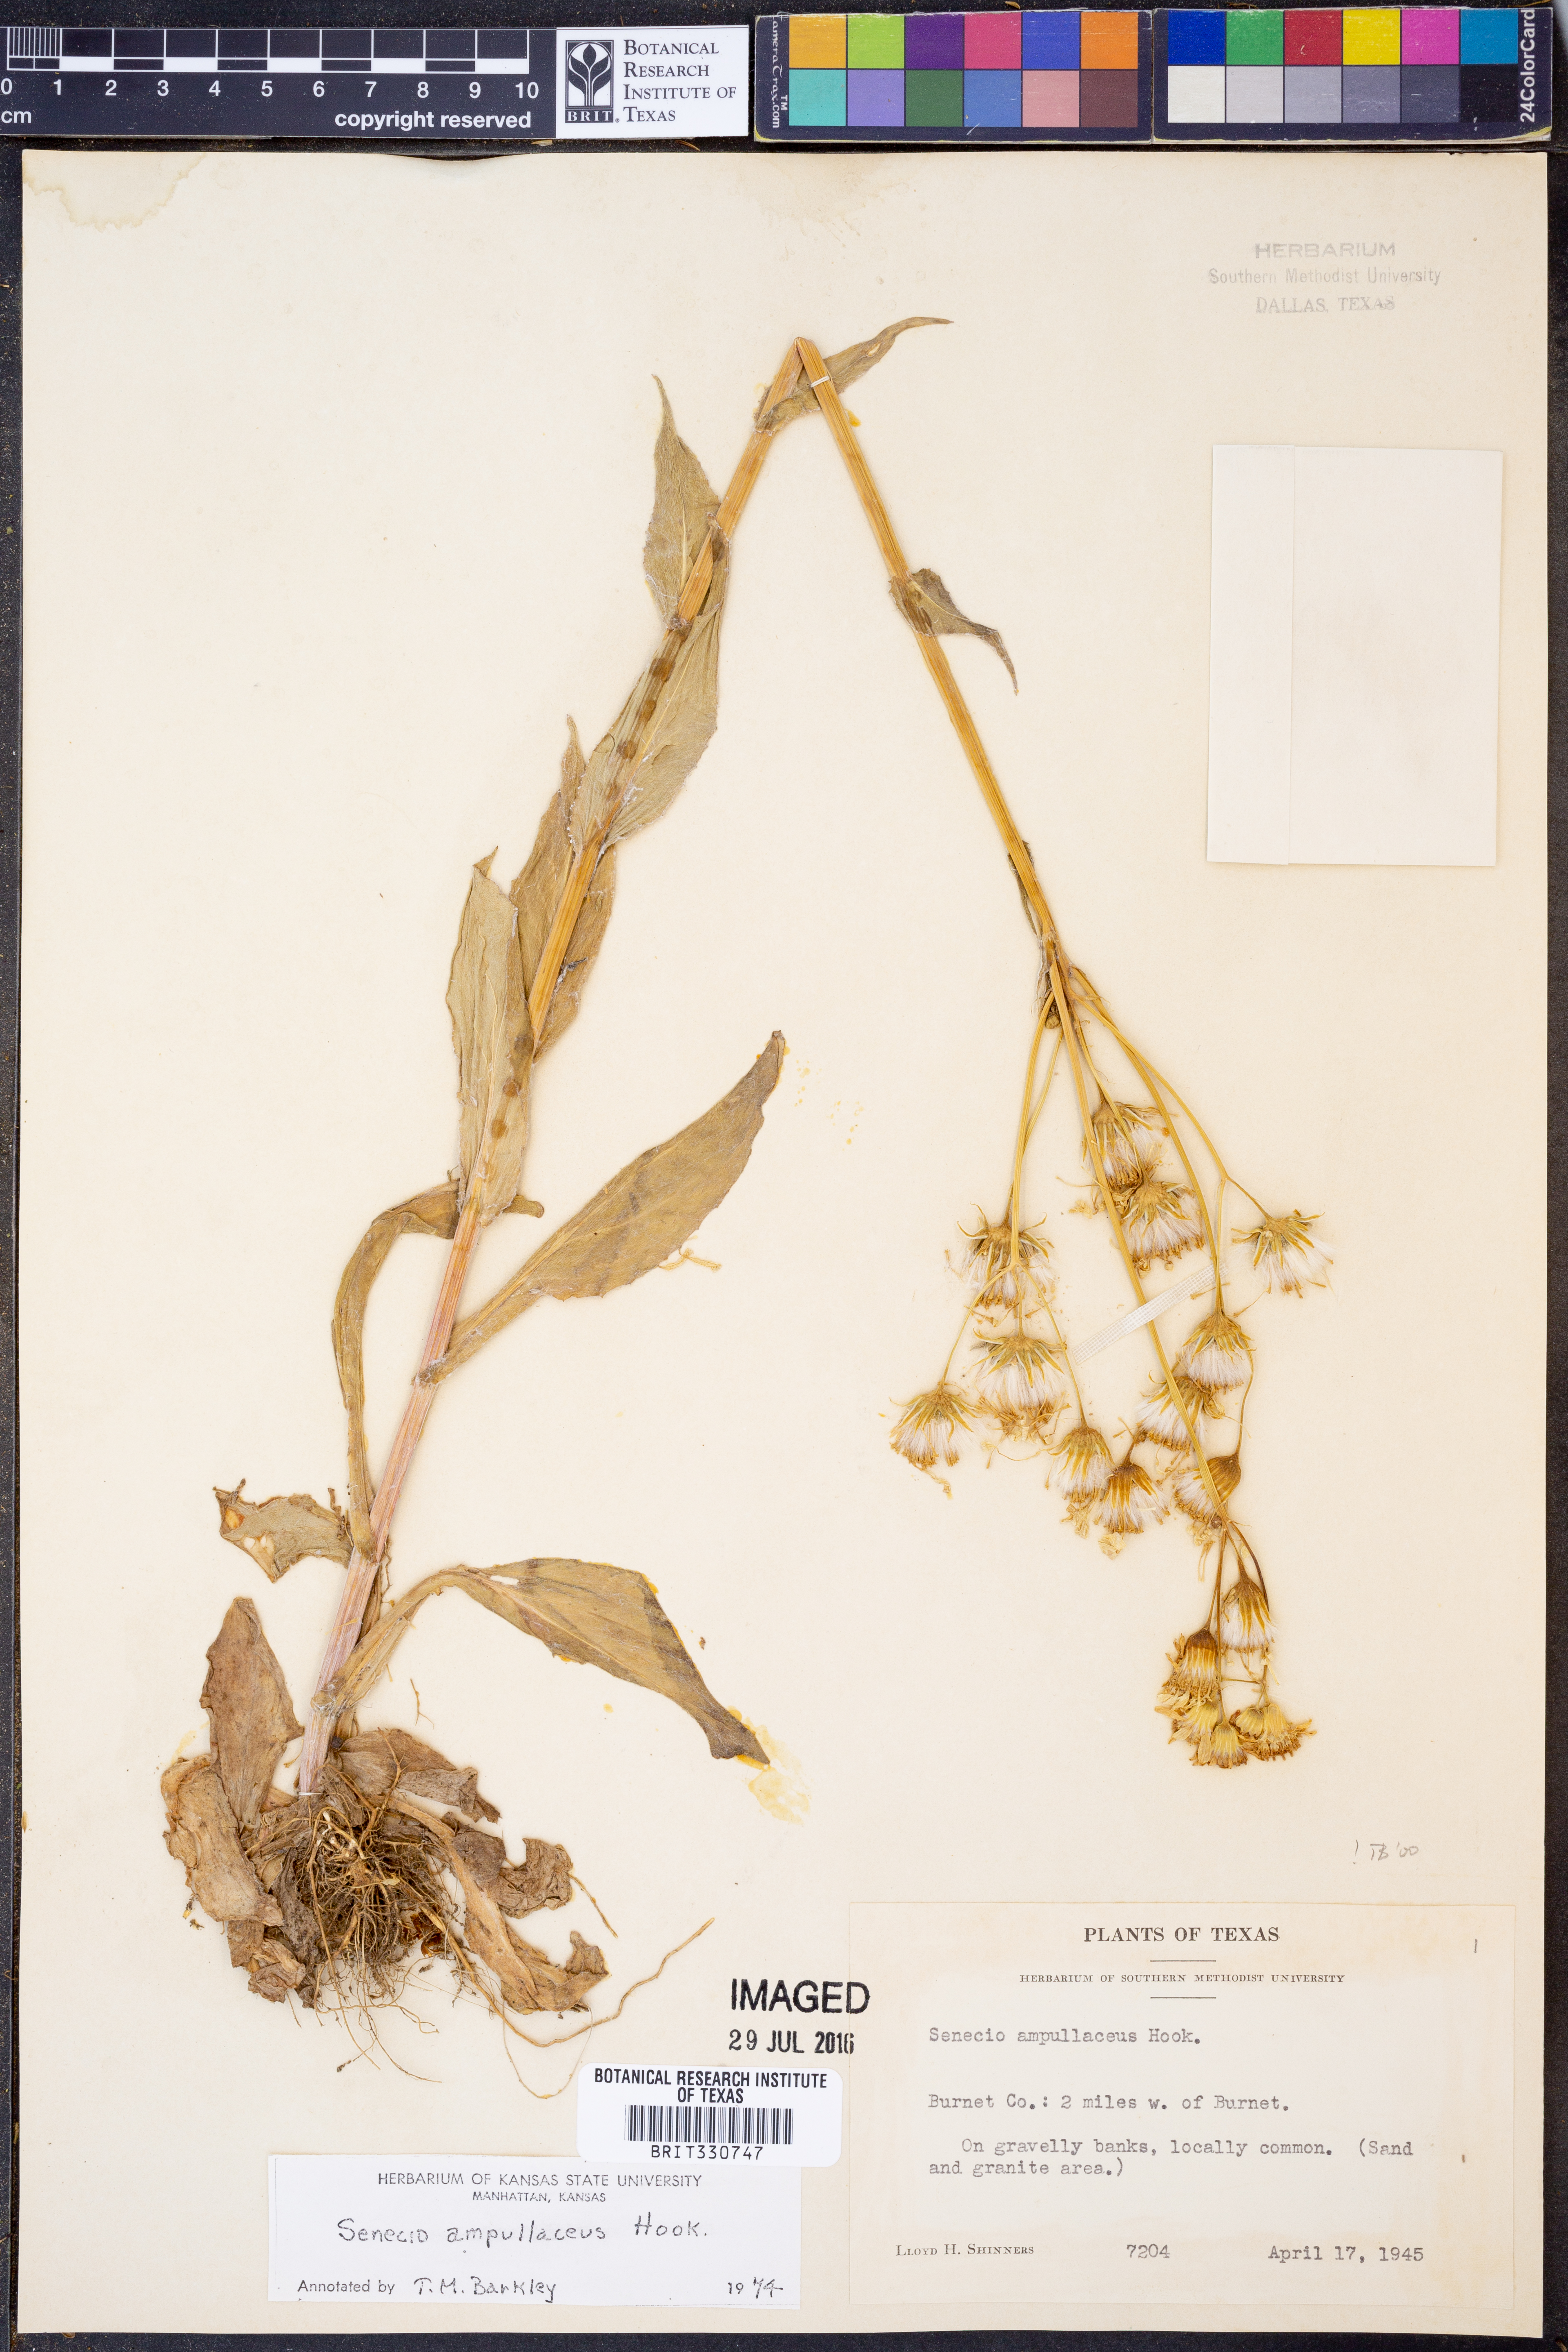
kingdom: Plantae
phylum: Tracheophyta
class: Magnoliopsida
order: Asterales
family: Asteraceae
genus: Senecio
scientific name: Senecio ampullaceus
